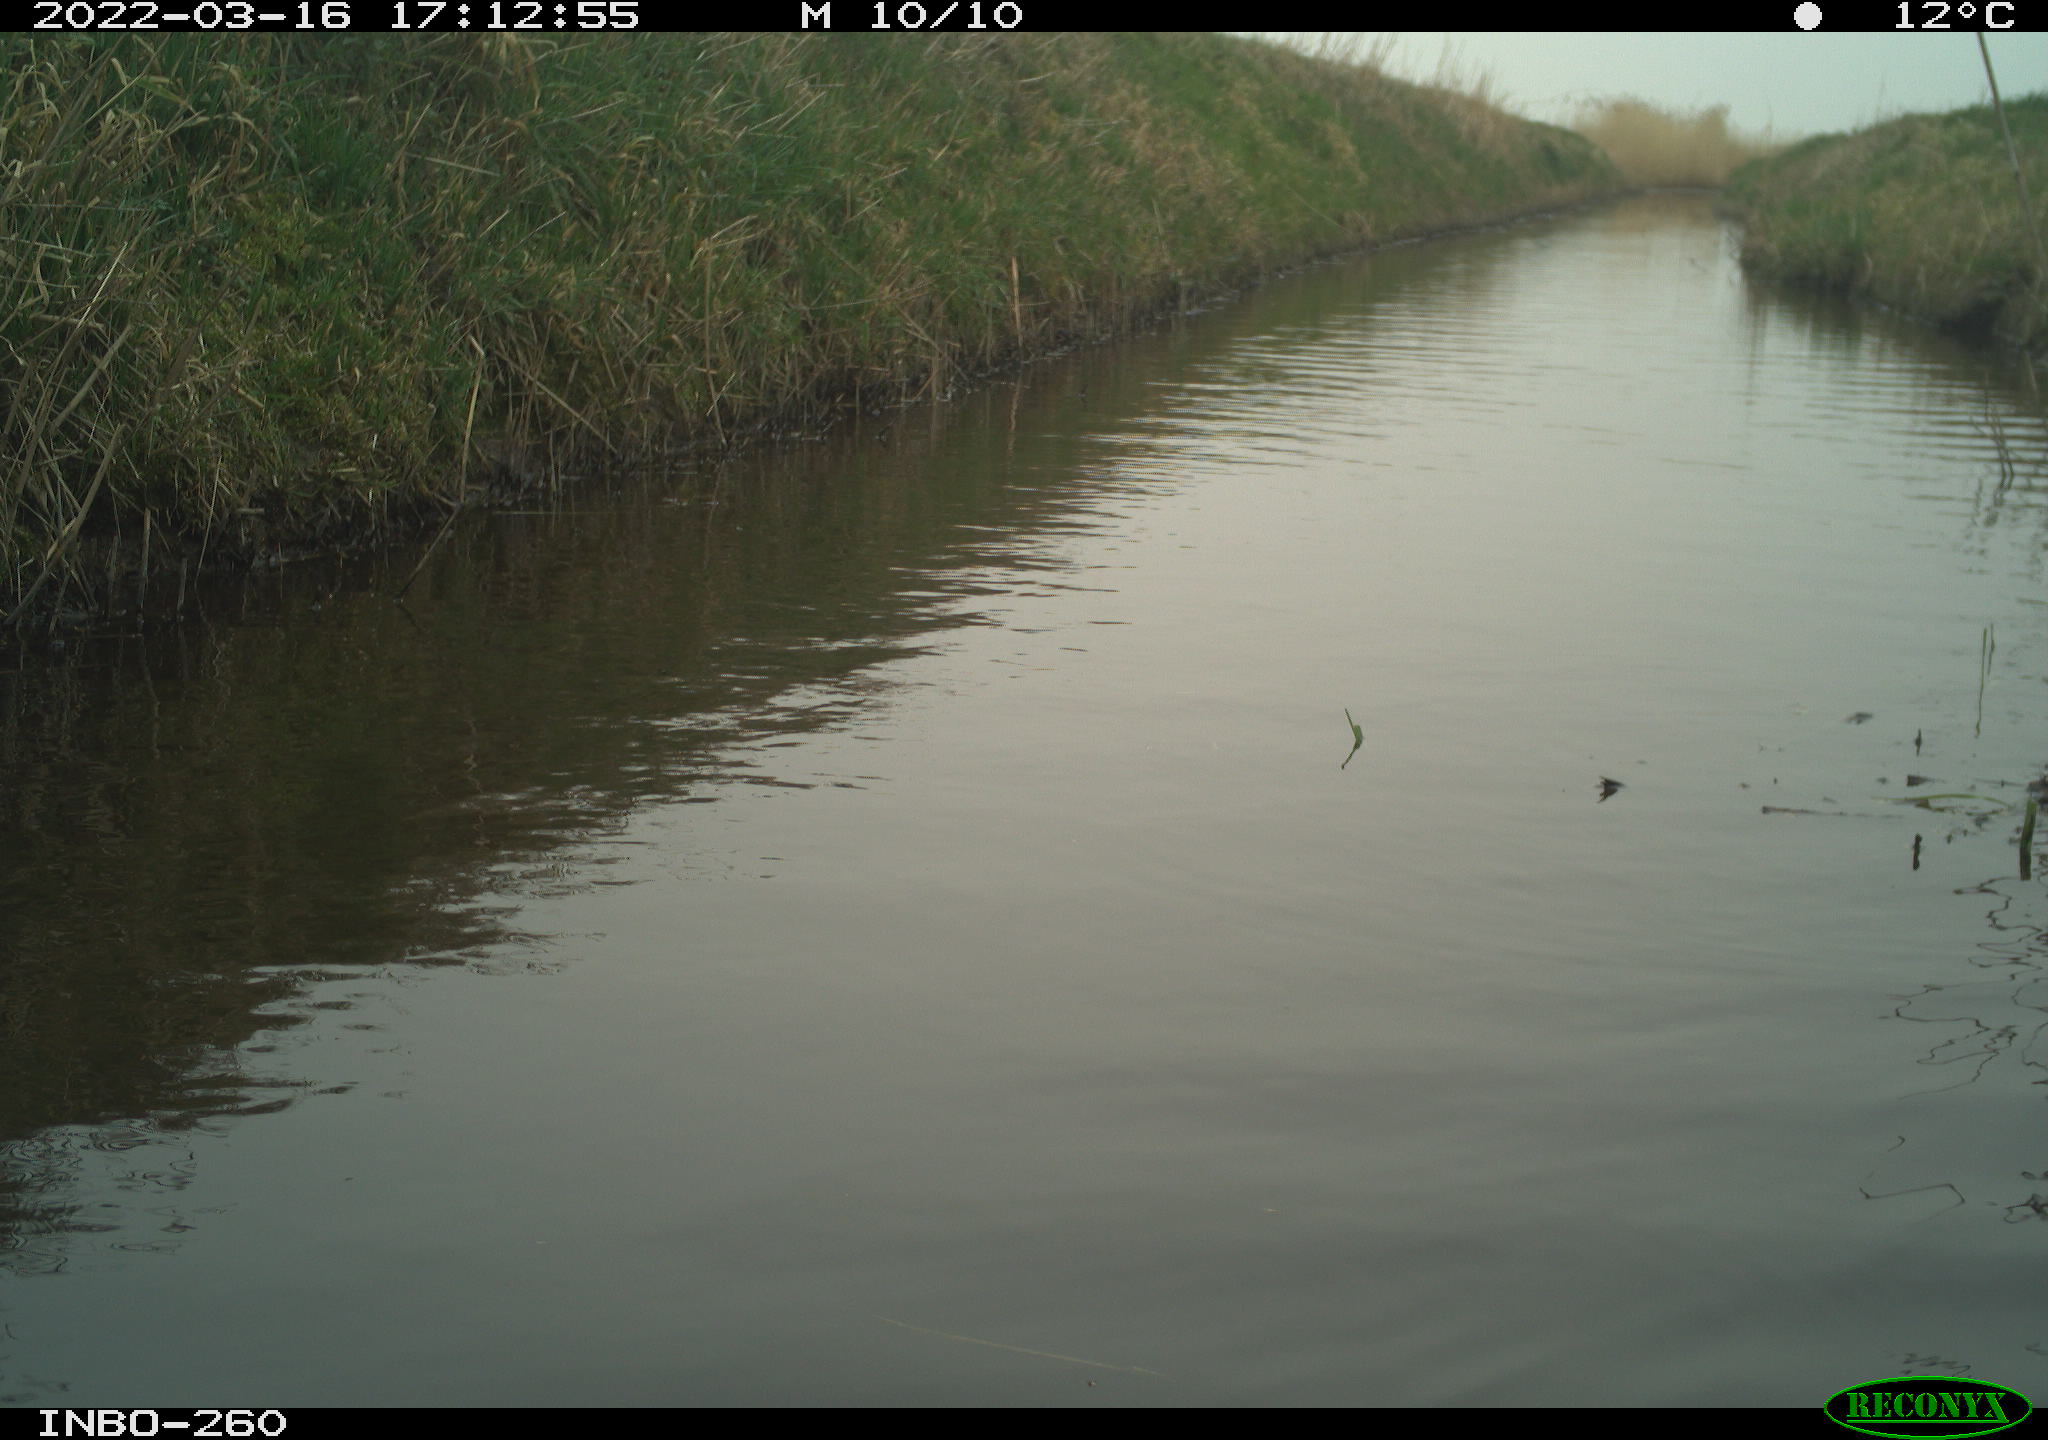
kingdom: Animalia
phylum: Chordata
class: Aves
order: Gruiformes
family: Rallidae
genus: Fulica
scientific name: Fulica atra
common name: Eurasian coot
